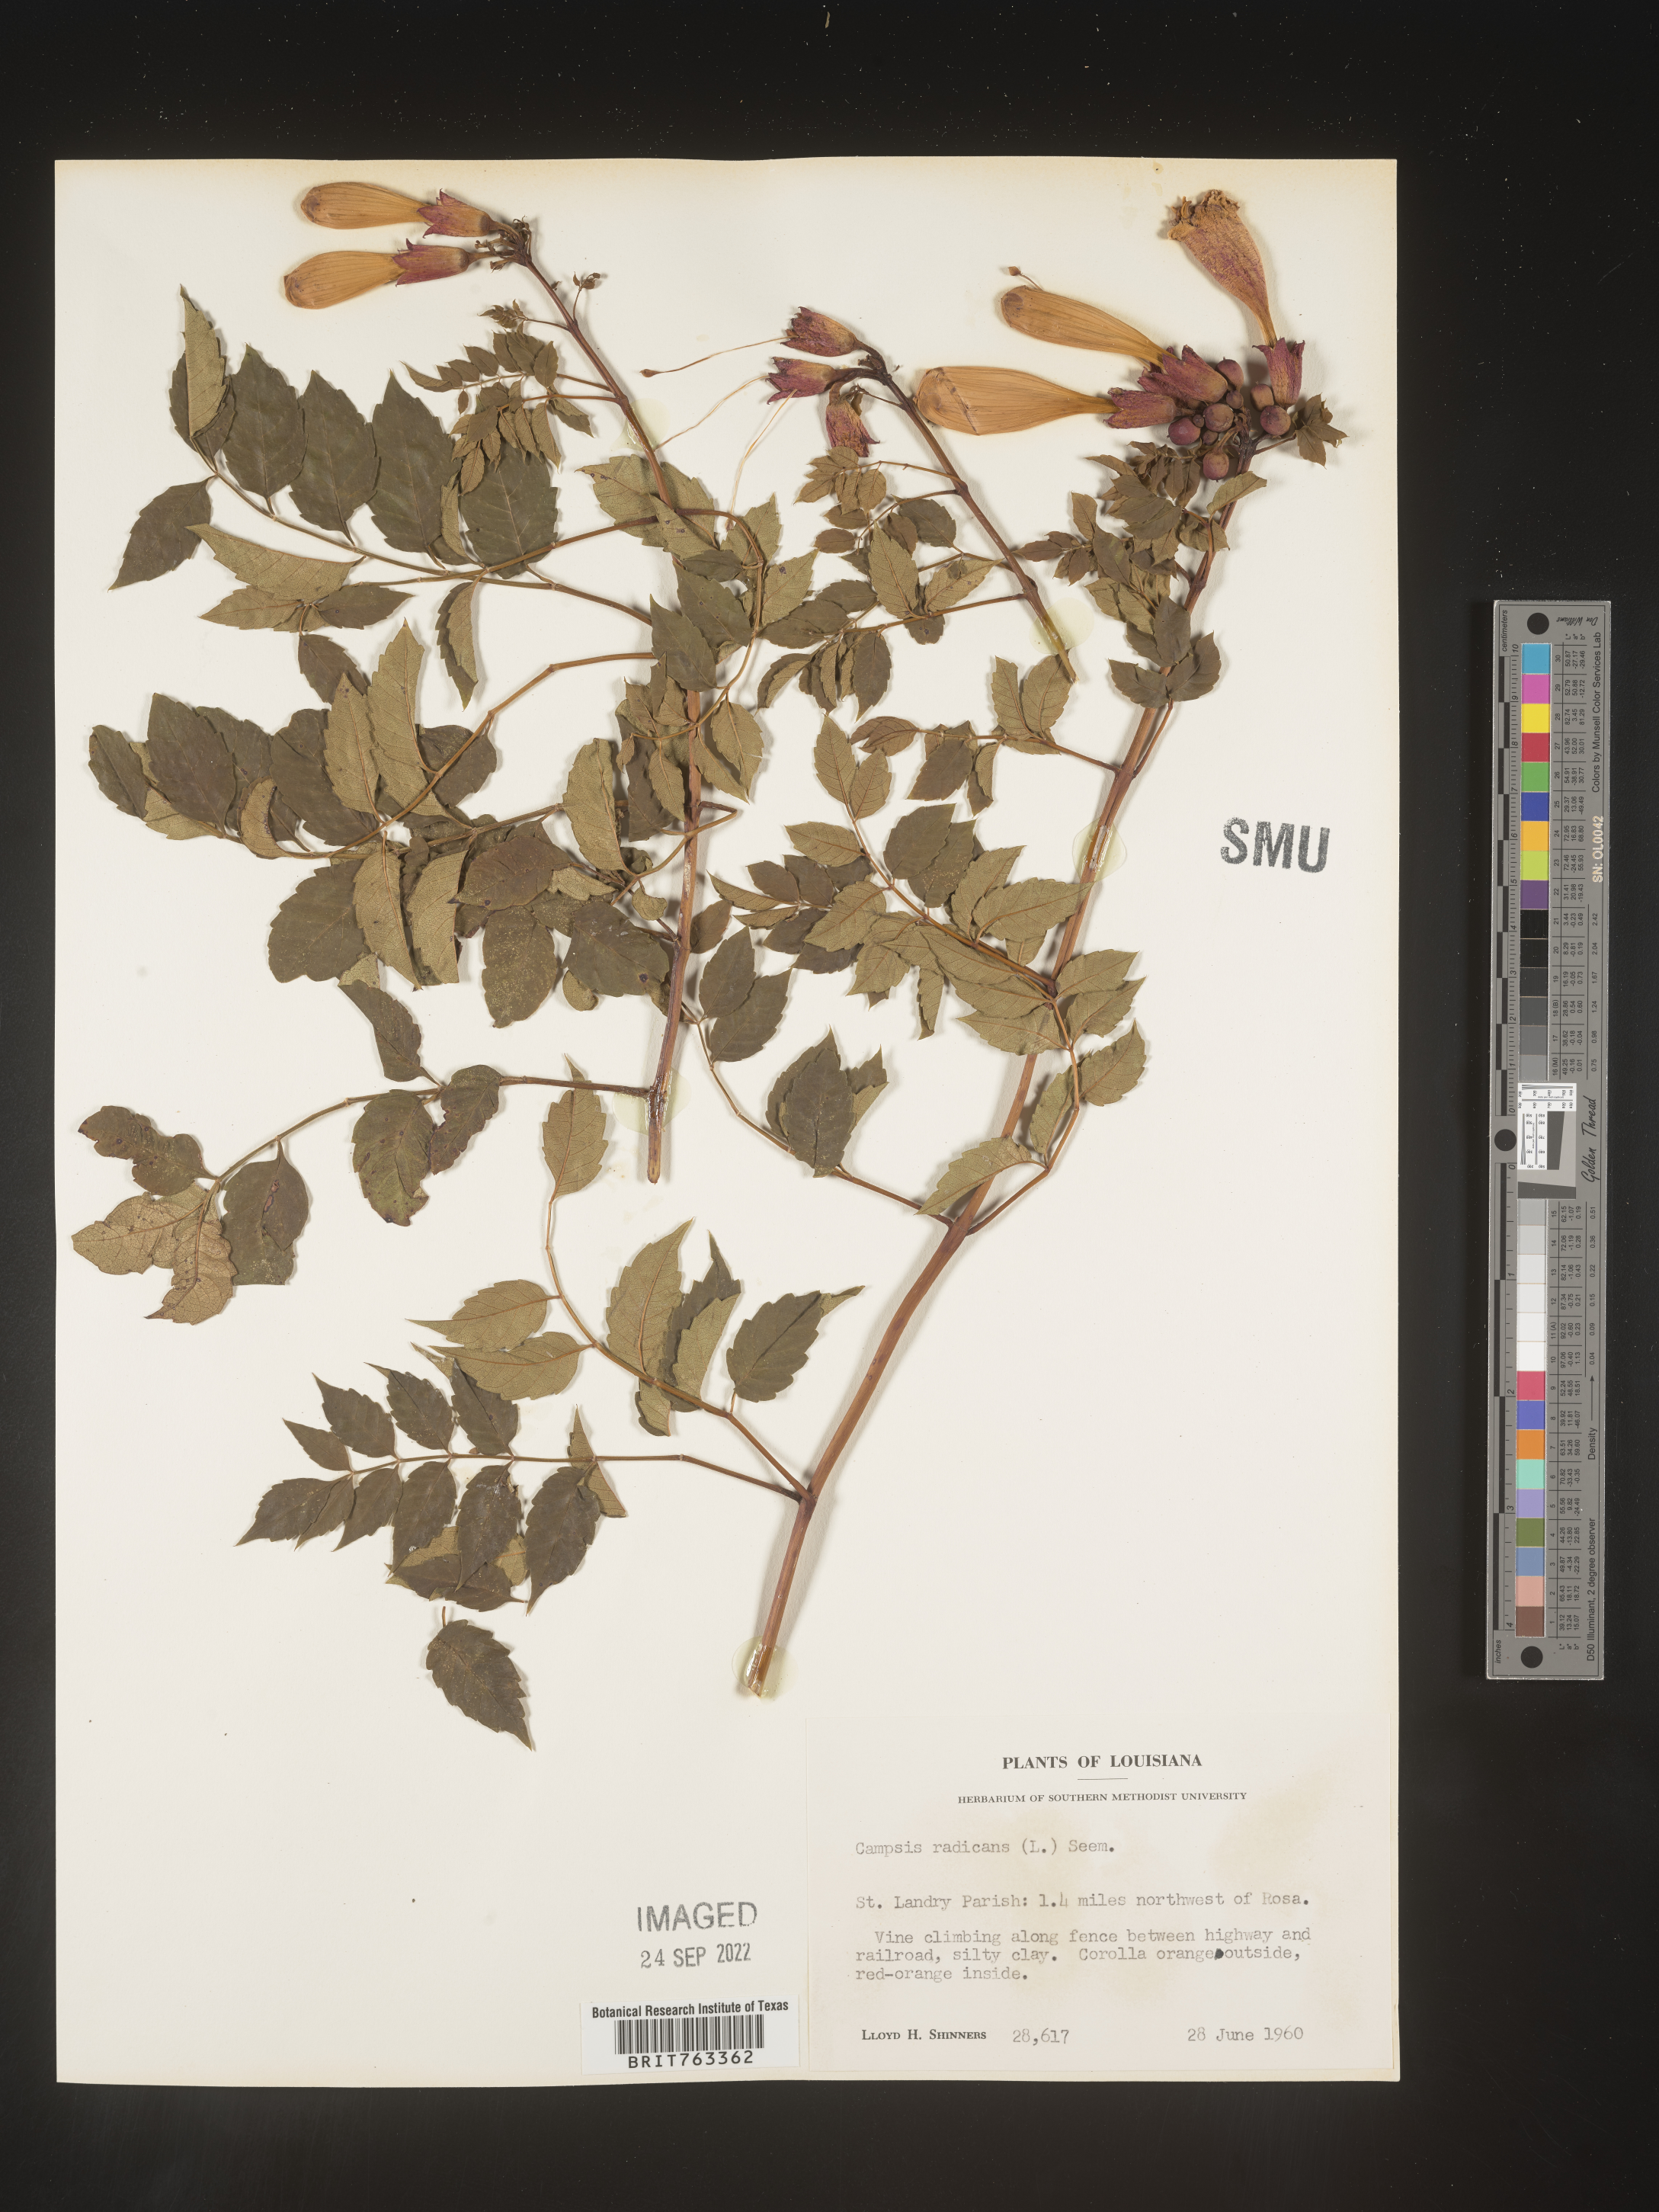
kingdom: Plantae
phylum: Tracheophyta
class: Magnoliopsida
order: Lamiales
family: Bignoniaceae
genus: Campsis
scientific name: Campsis radicans
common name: Trumpet-creeper
